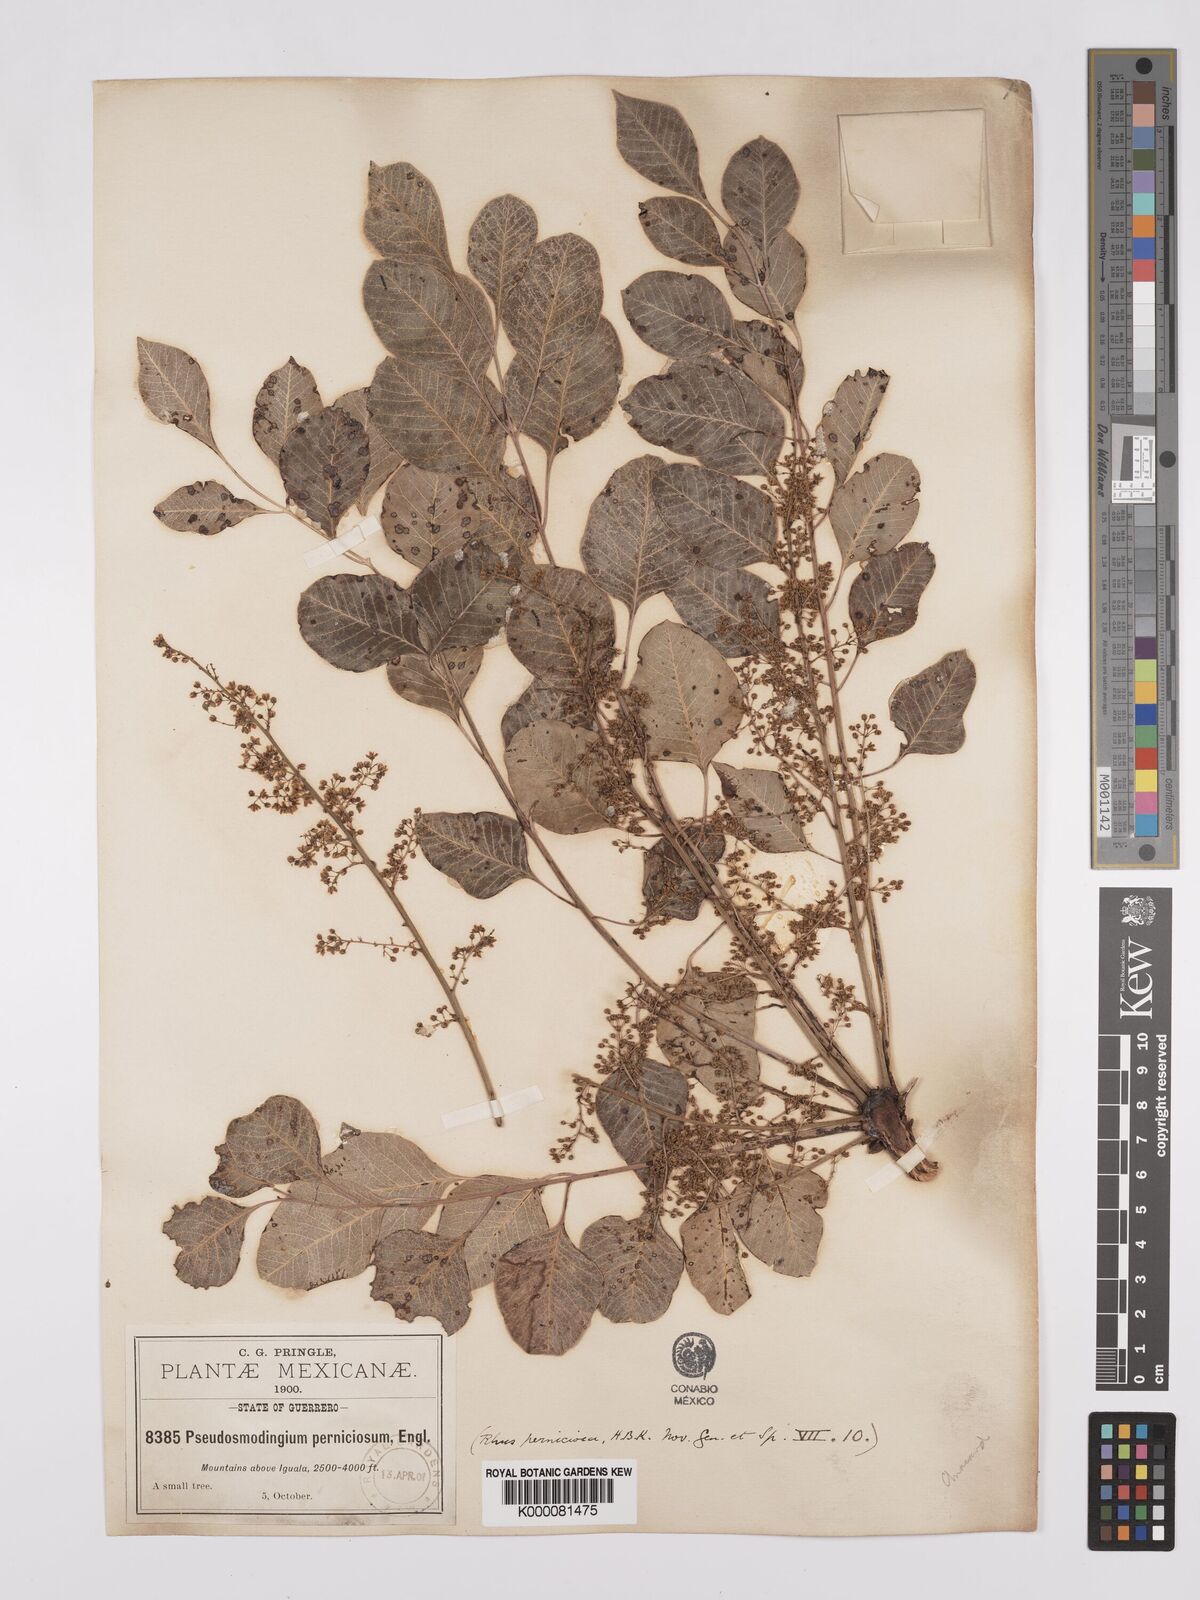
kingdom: Plantae
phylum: Tracheophyta
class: Magnoliopsida
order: Sapindales
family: Anacardiaceae
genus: Pseudosmodingium
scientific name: Pseudosmodingium perniciosum
